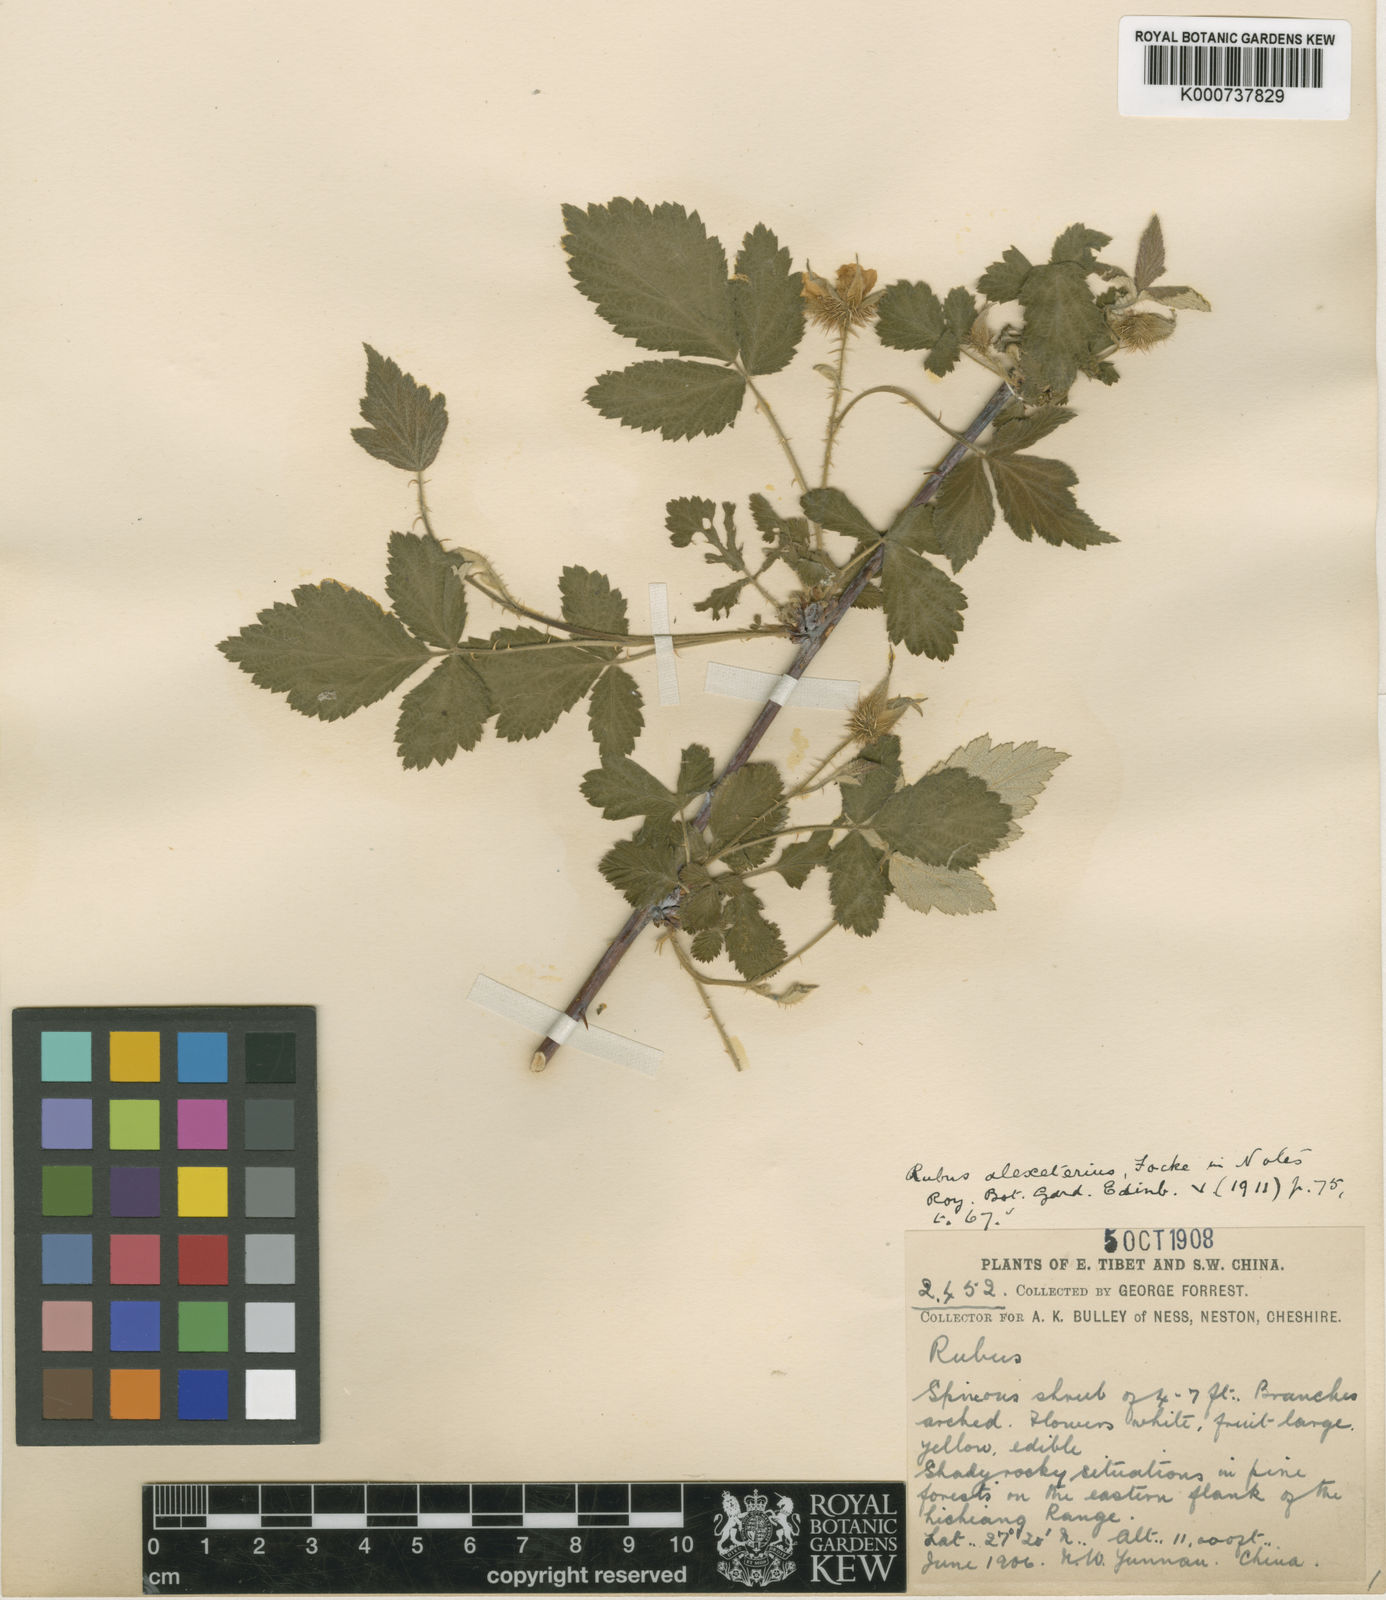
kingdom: Plantae
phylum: Tracheophyta
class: Magnoliopsida
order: Rosales
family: Rosaceae
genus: Rubus
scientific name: Rubus alexeterius
